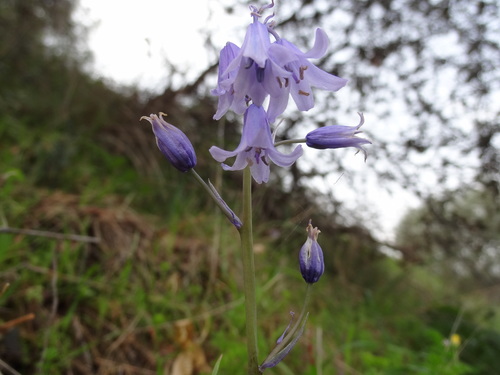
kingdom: Plantae
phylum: Tracheophyta
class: Liliopsida
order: Asparagales
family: Asparagaceae
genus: Hyacinthoides
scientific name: Hyacinthoides hispanica
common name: Spanish bluebell
